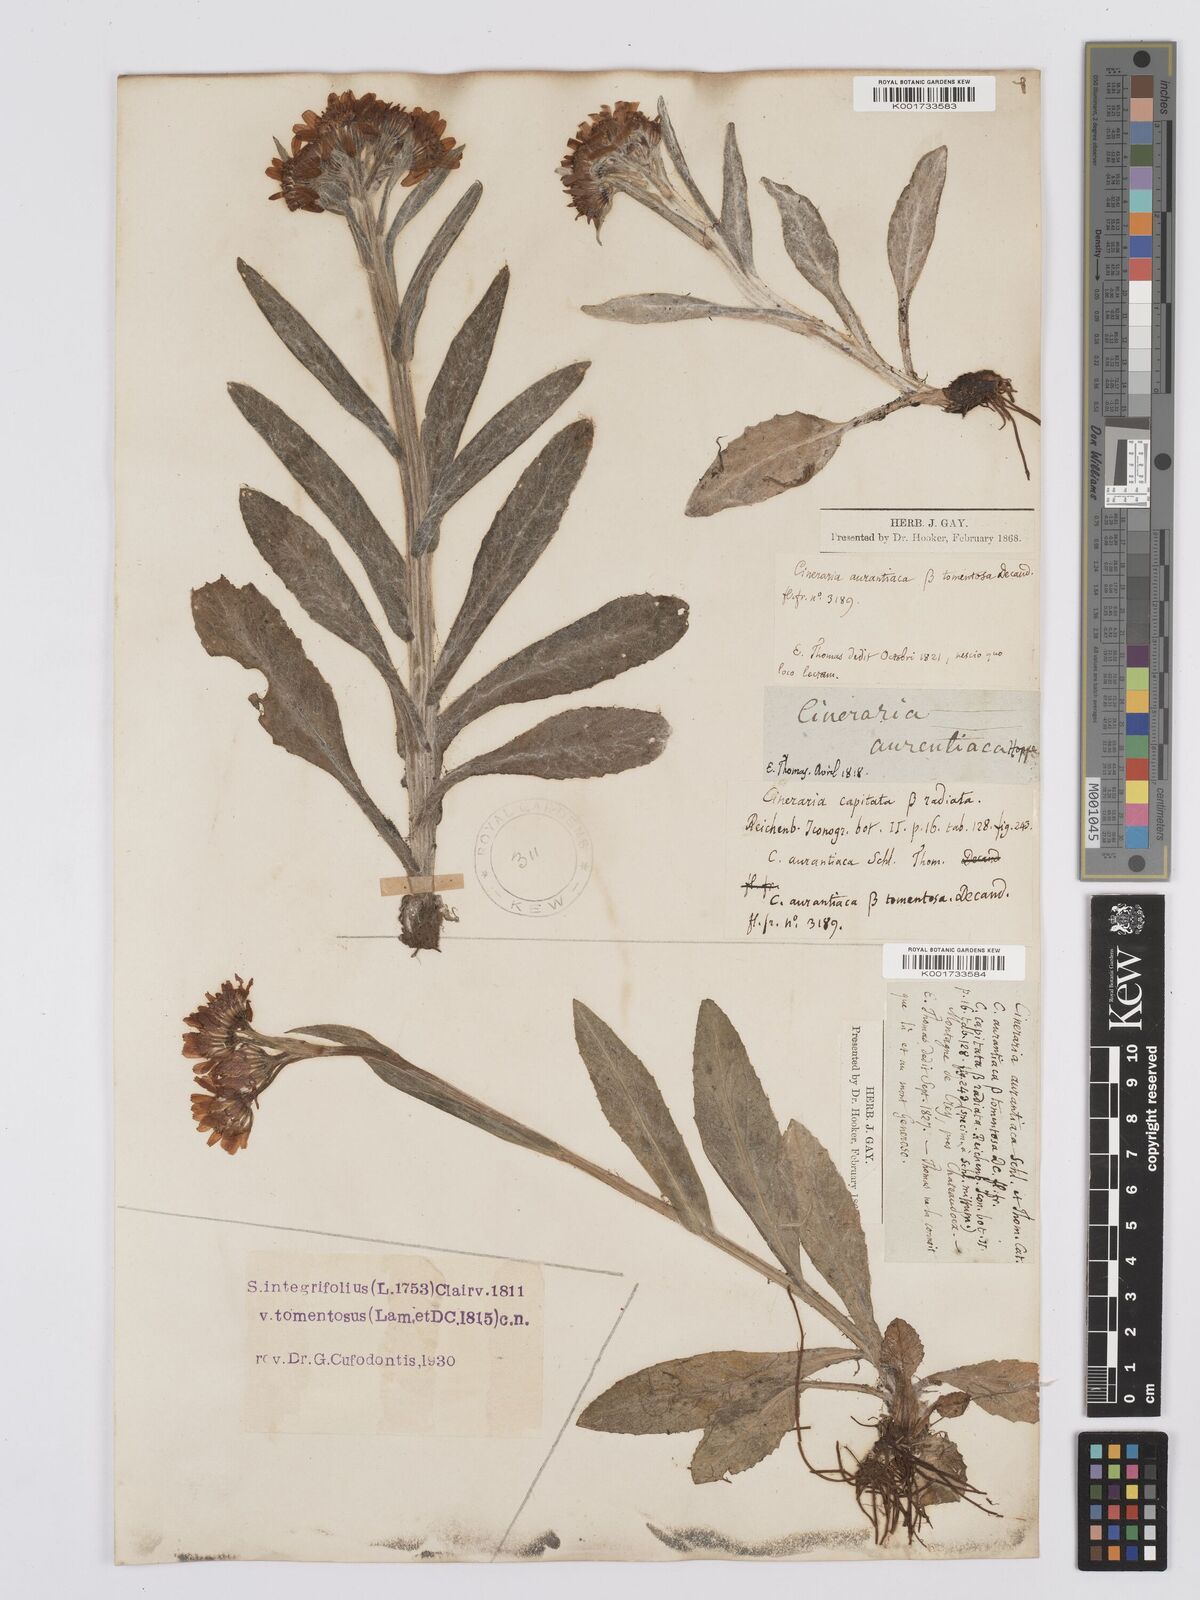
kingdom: Plantae
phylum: Tracheophyta
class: Magnoliopsida
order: Asterales
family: Asteraceae
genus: Tephroseris
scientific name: Tephroseris integrifolia
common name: Field fleawort
